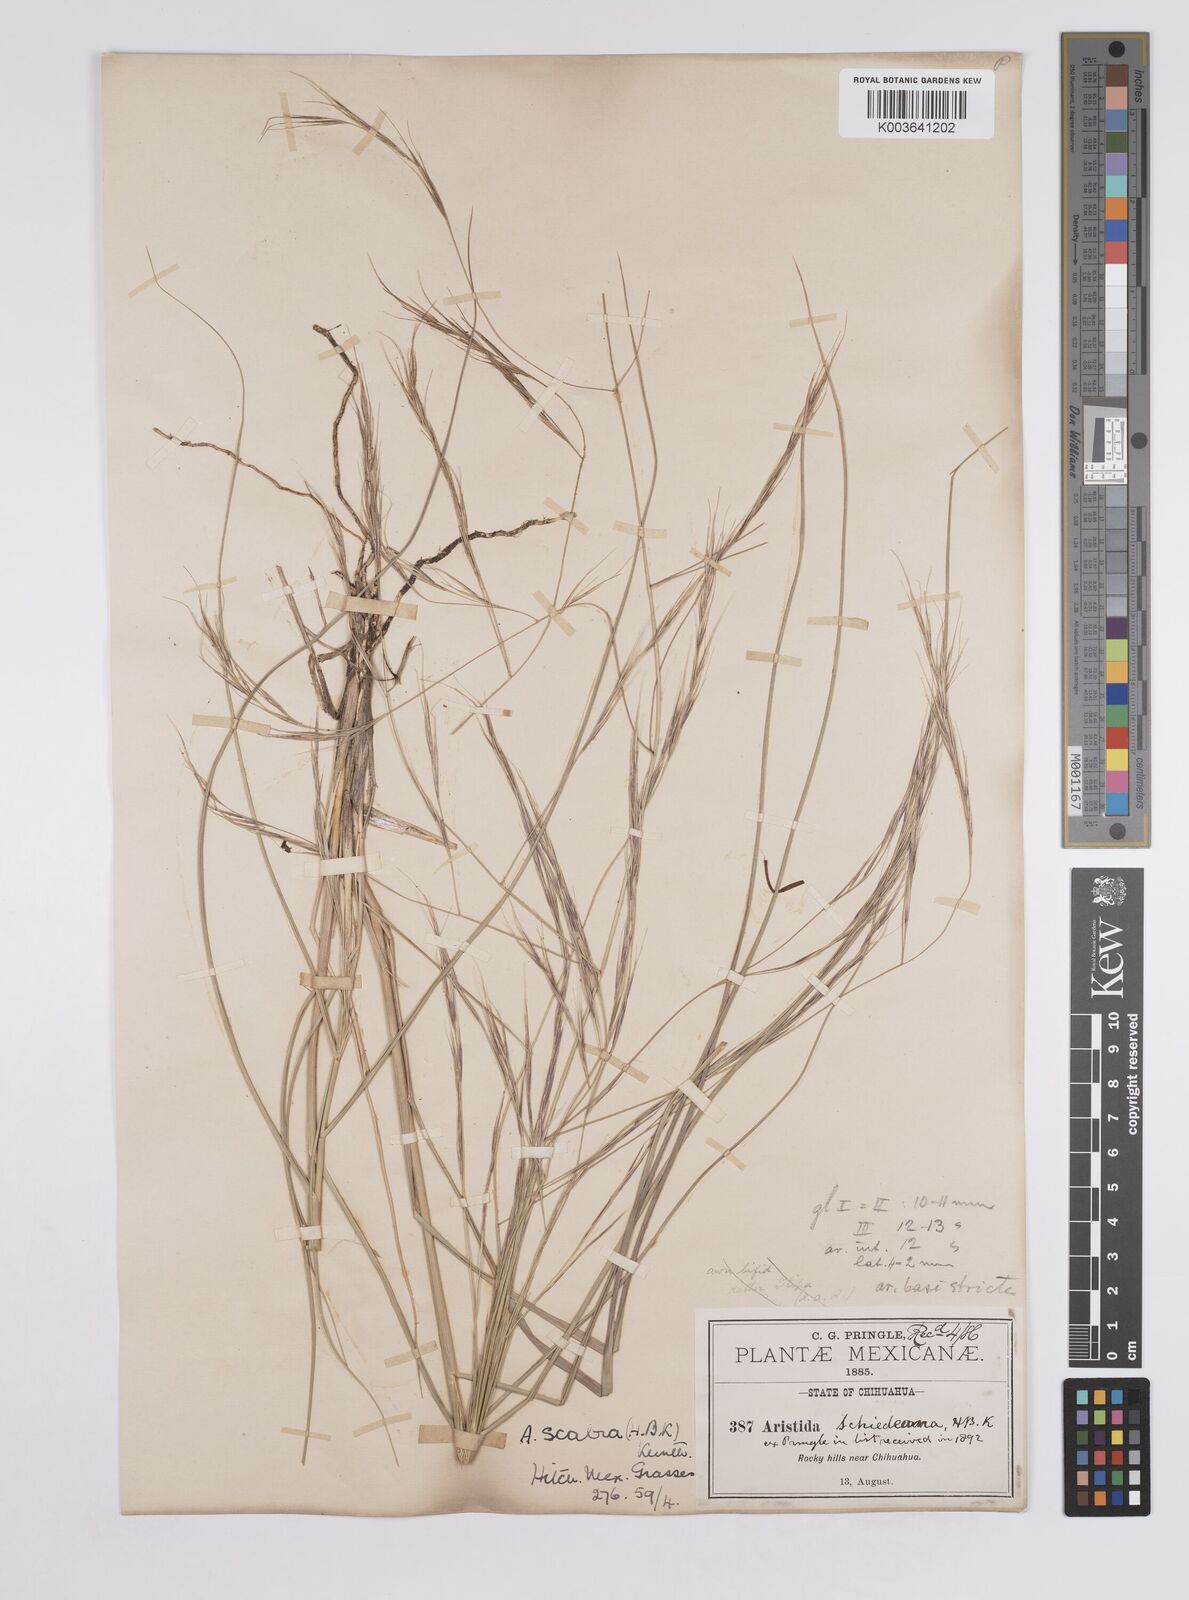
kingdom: Plantae
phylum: Tracheophyta
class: Liliopsida
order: Poales
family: Poaceae
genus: Aristida
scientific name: Aristida ternipes
